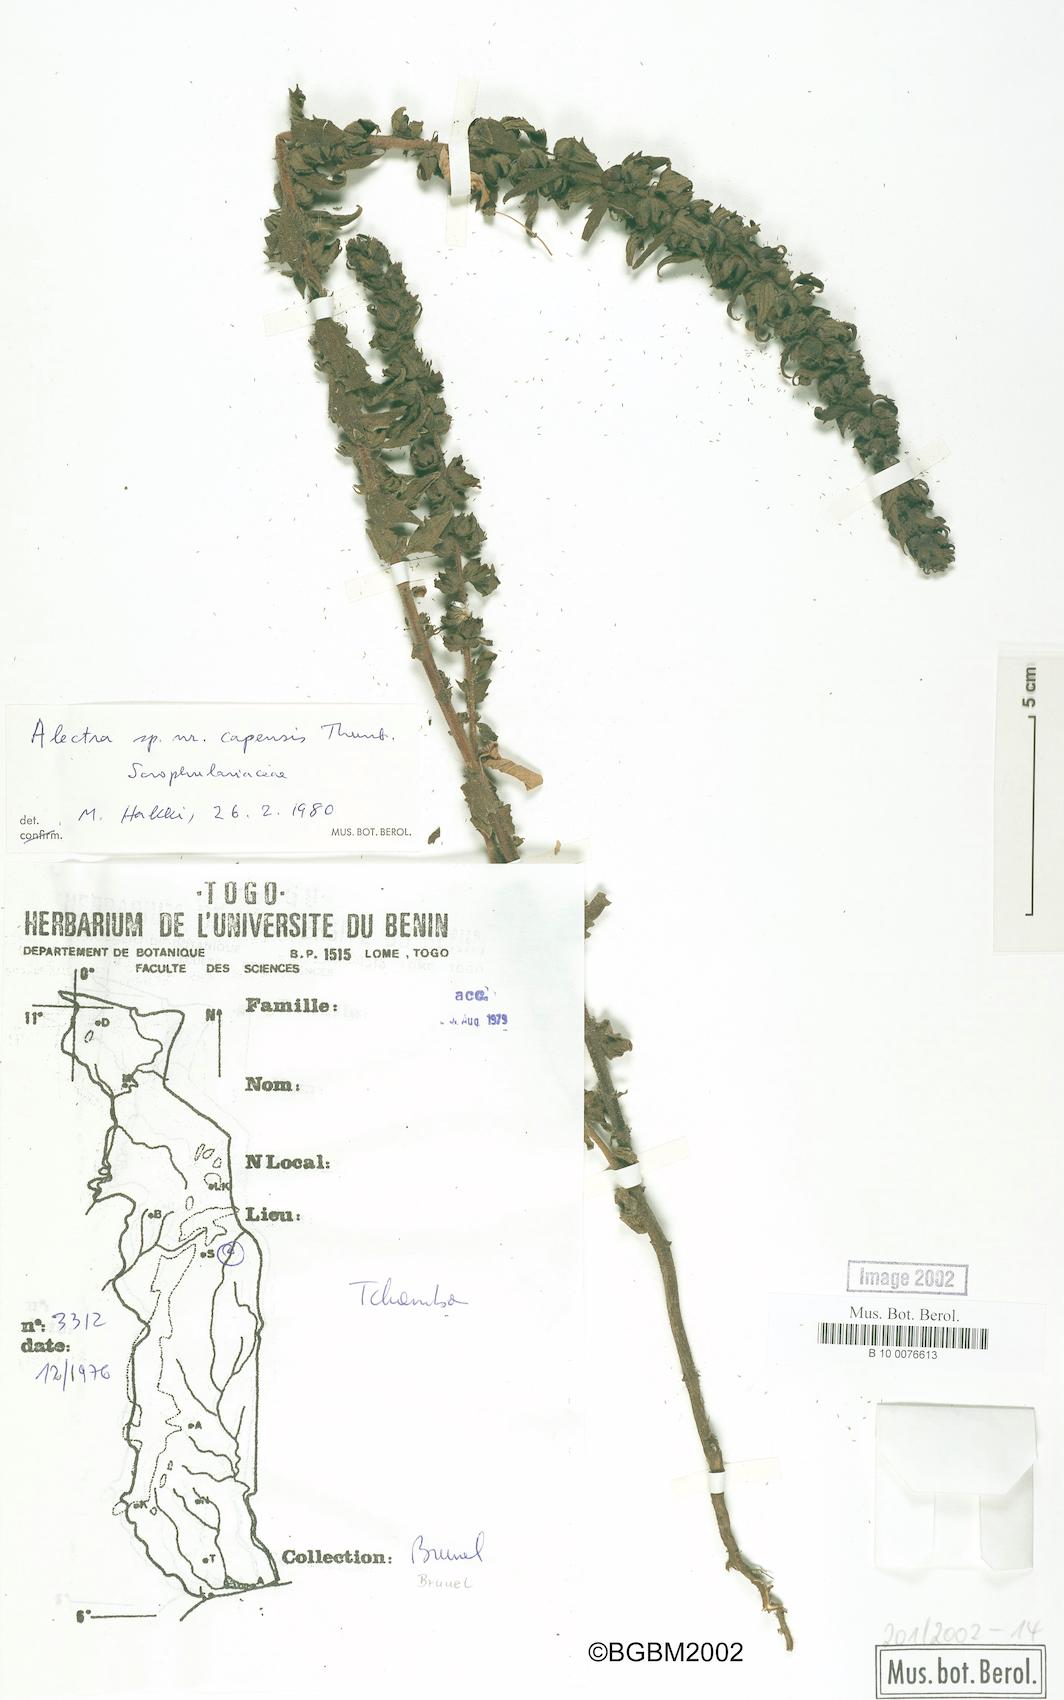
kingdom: Plantae
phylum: Tracheophyta
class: Magnoliopsida
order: Lamiales
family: Orobanchaceae
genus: Alectra
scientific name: Alectra capensis
